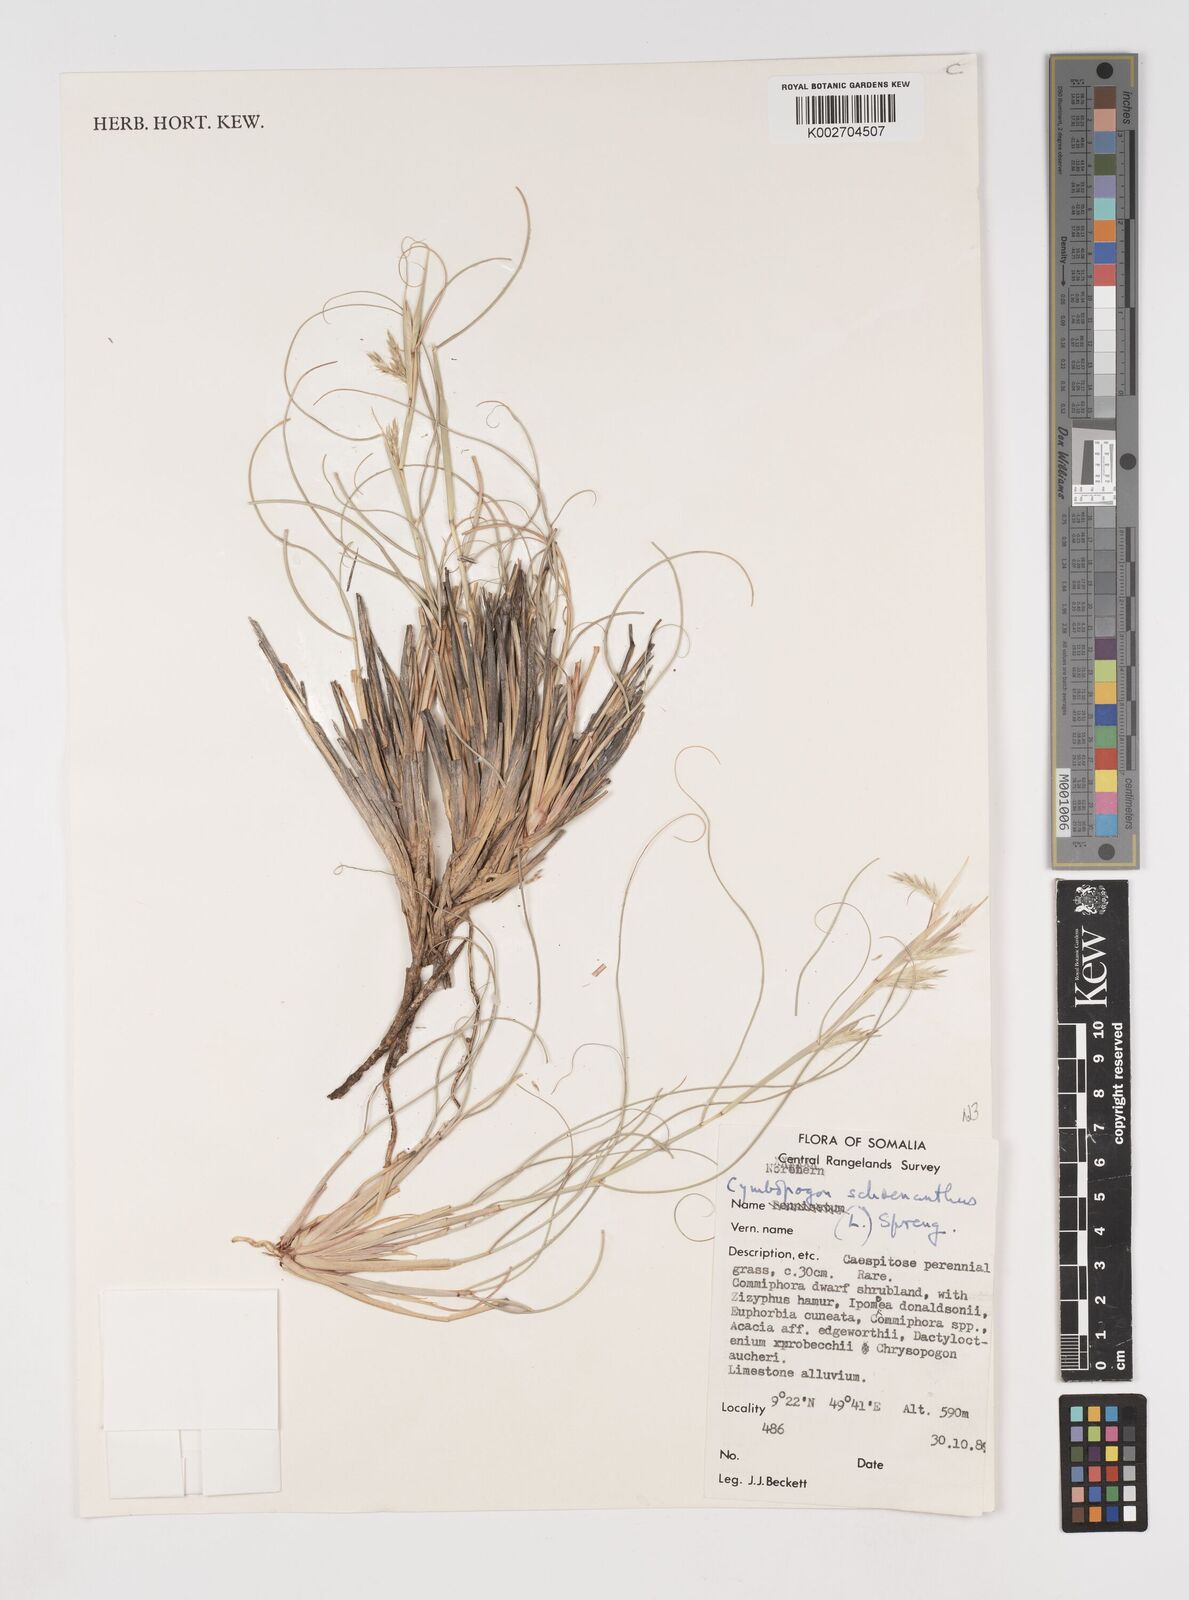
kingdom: Plantae
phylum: Tracheophyta
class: Liliopsida
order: Poales
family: Poaceae
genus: Cymbopogon
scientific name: Cymbopogon schoenanthus
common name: Geranium grass
